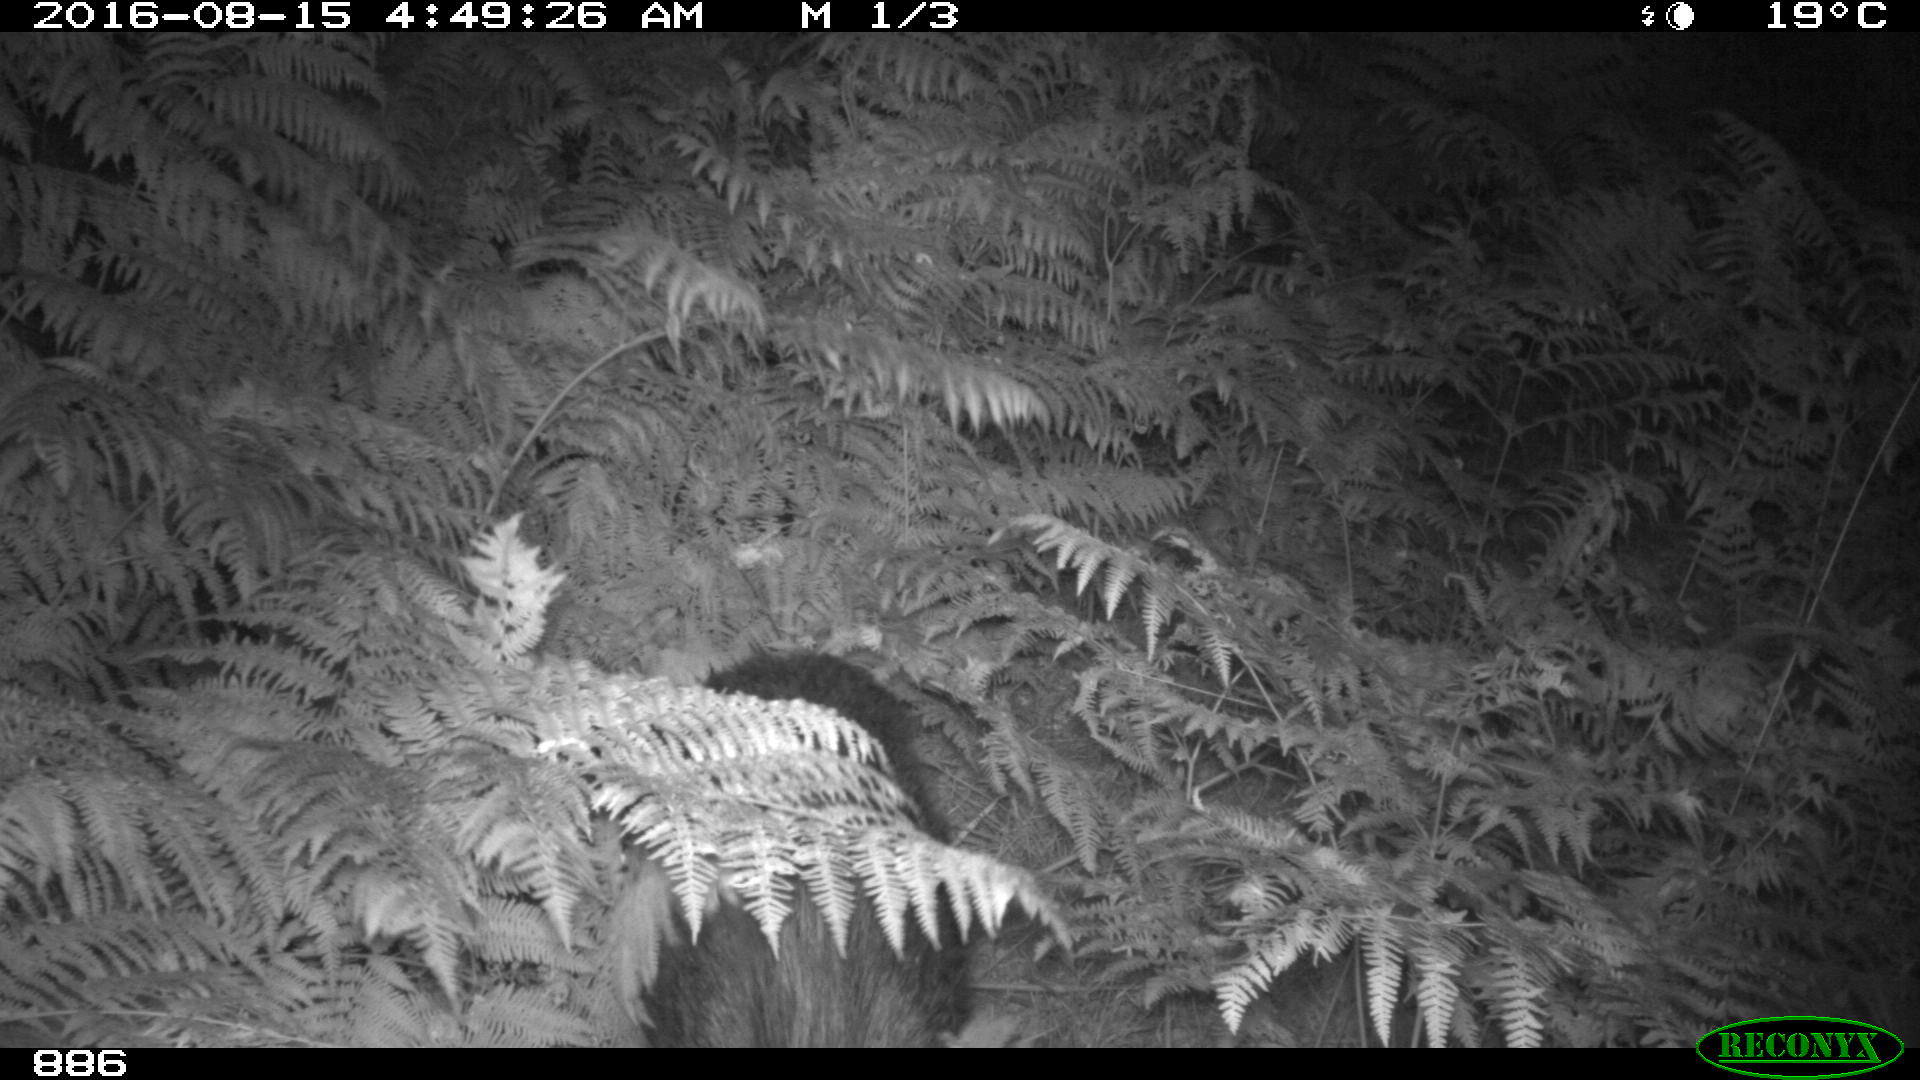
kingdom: Animalia
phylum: Chordata
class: Mammalia
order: Artiodactyla
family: Suidae
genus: Sus
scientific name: Sus scrofa
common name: Wild boar
